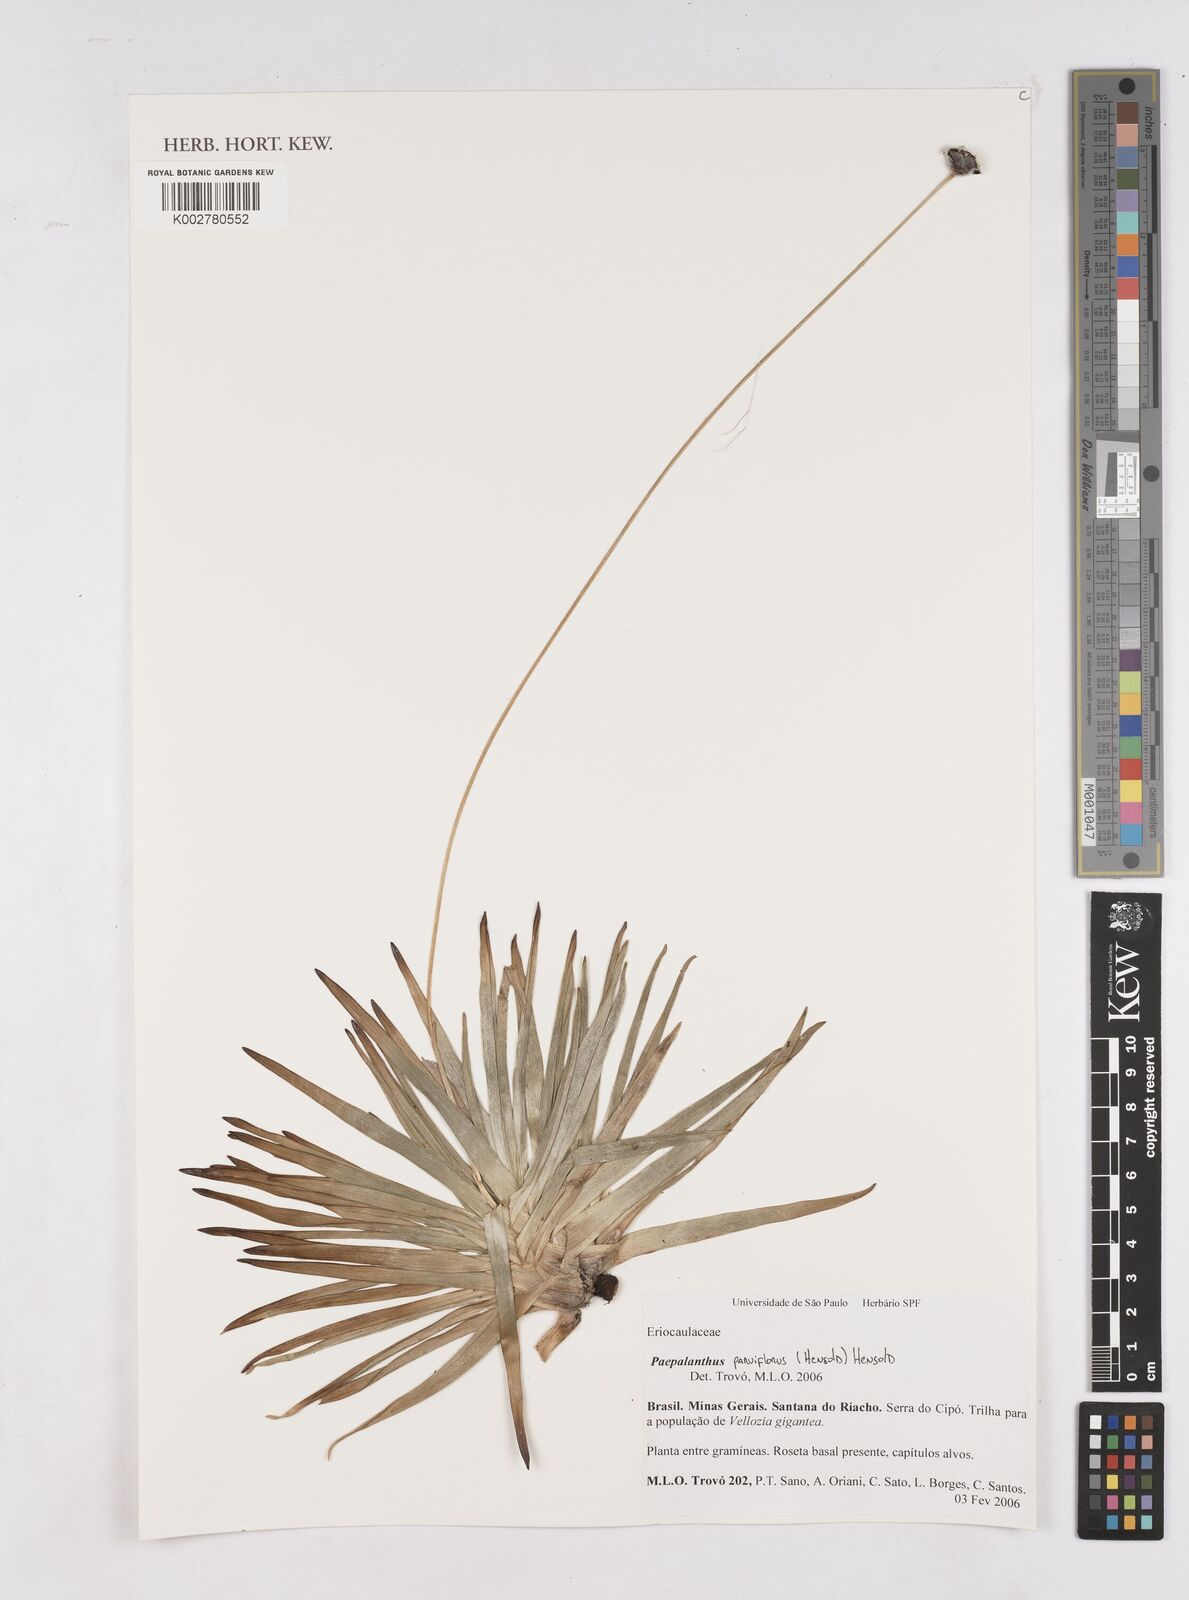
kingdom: Plantae
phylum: Tracheophyta
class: Liliopsida
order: Poales
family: Eriocaulaceae
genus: Paepalanthus
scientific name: Paepalanthus parviflorus
